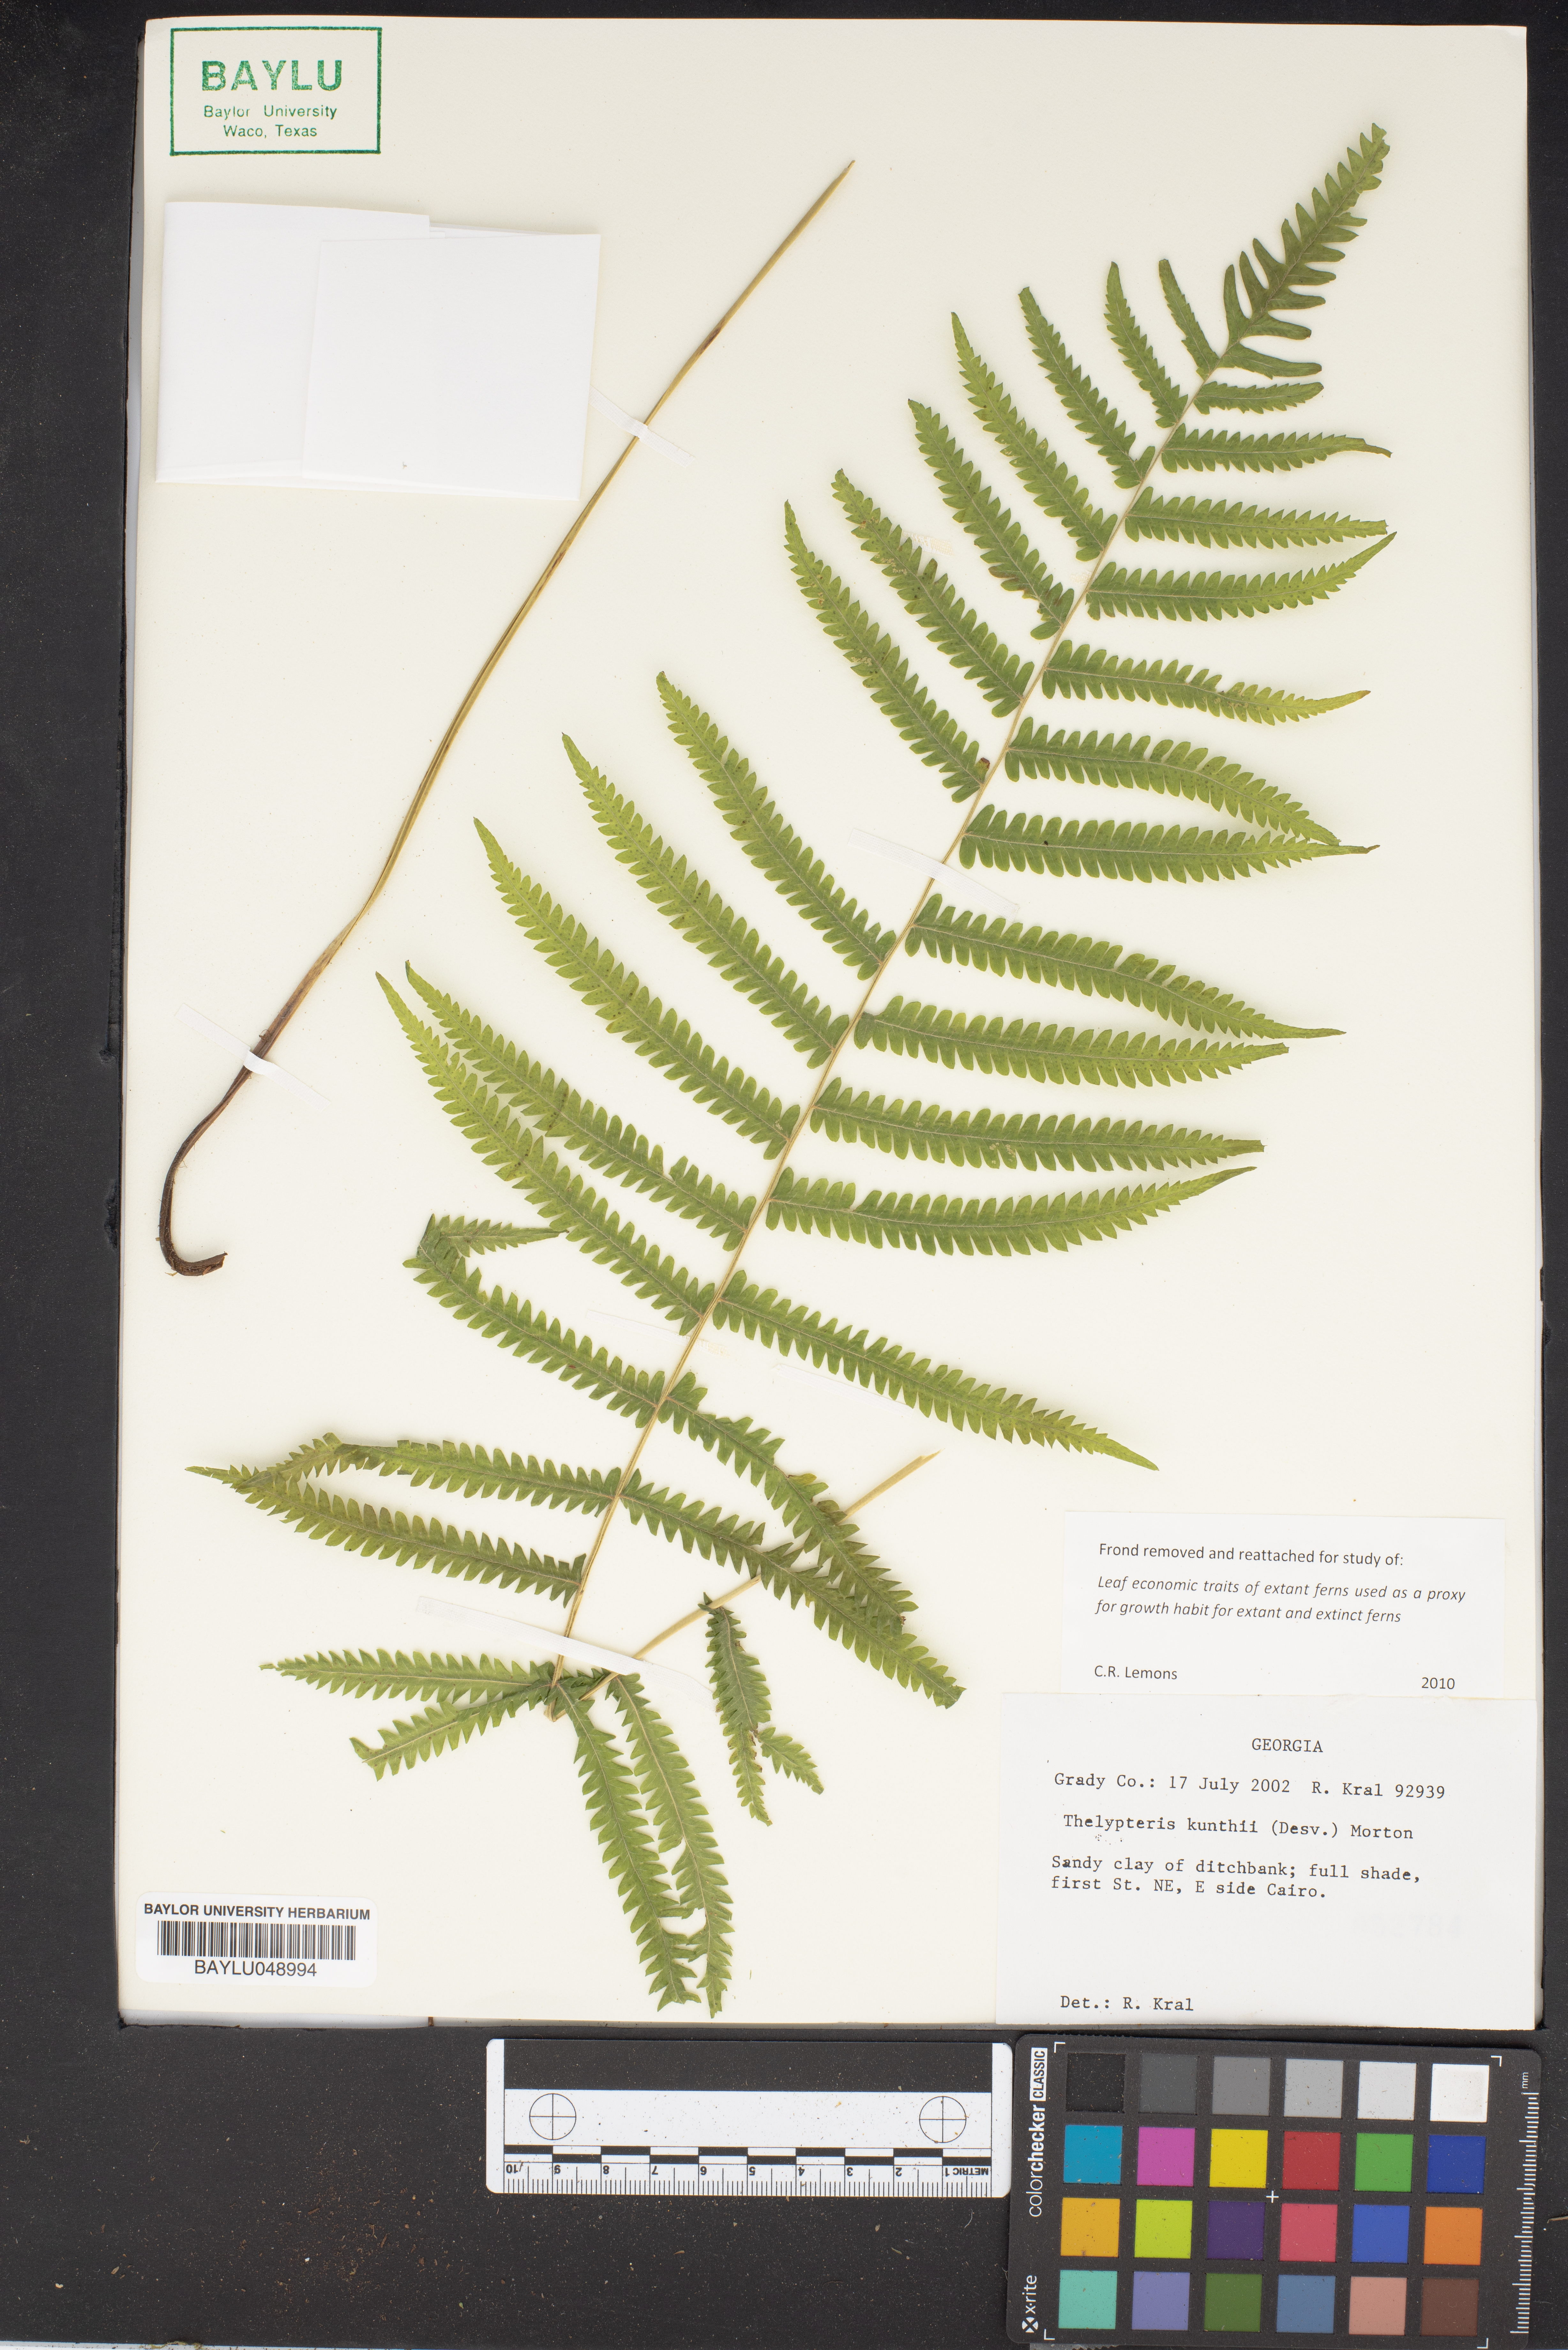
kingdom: Plantae
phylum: Tracheophyta
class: Polypodiopsida
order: Polypodiales
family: Thelypteridaceae
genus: Pelazoneuron
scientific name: Pelazoneuron kunthii
